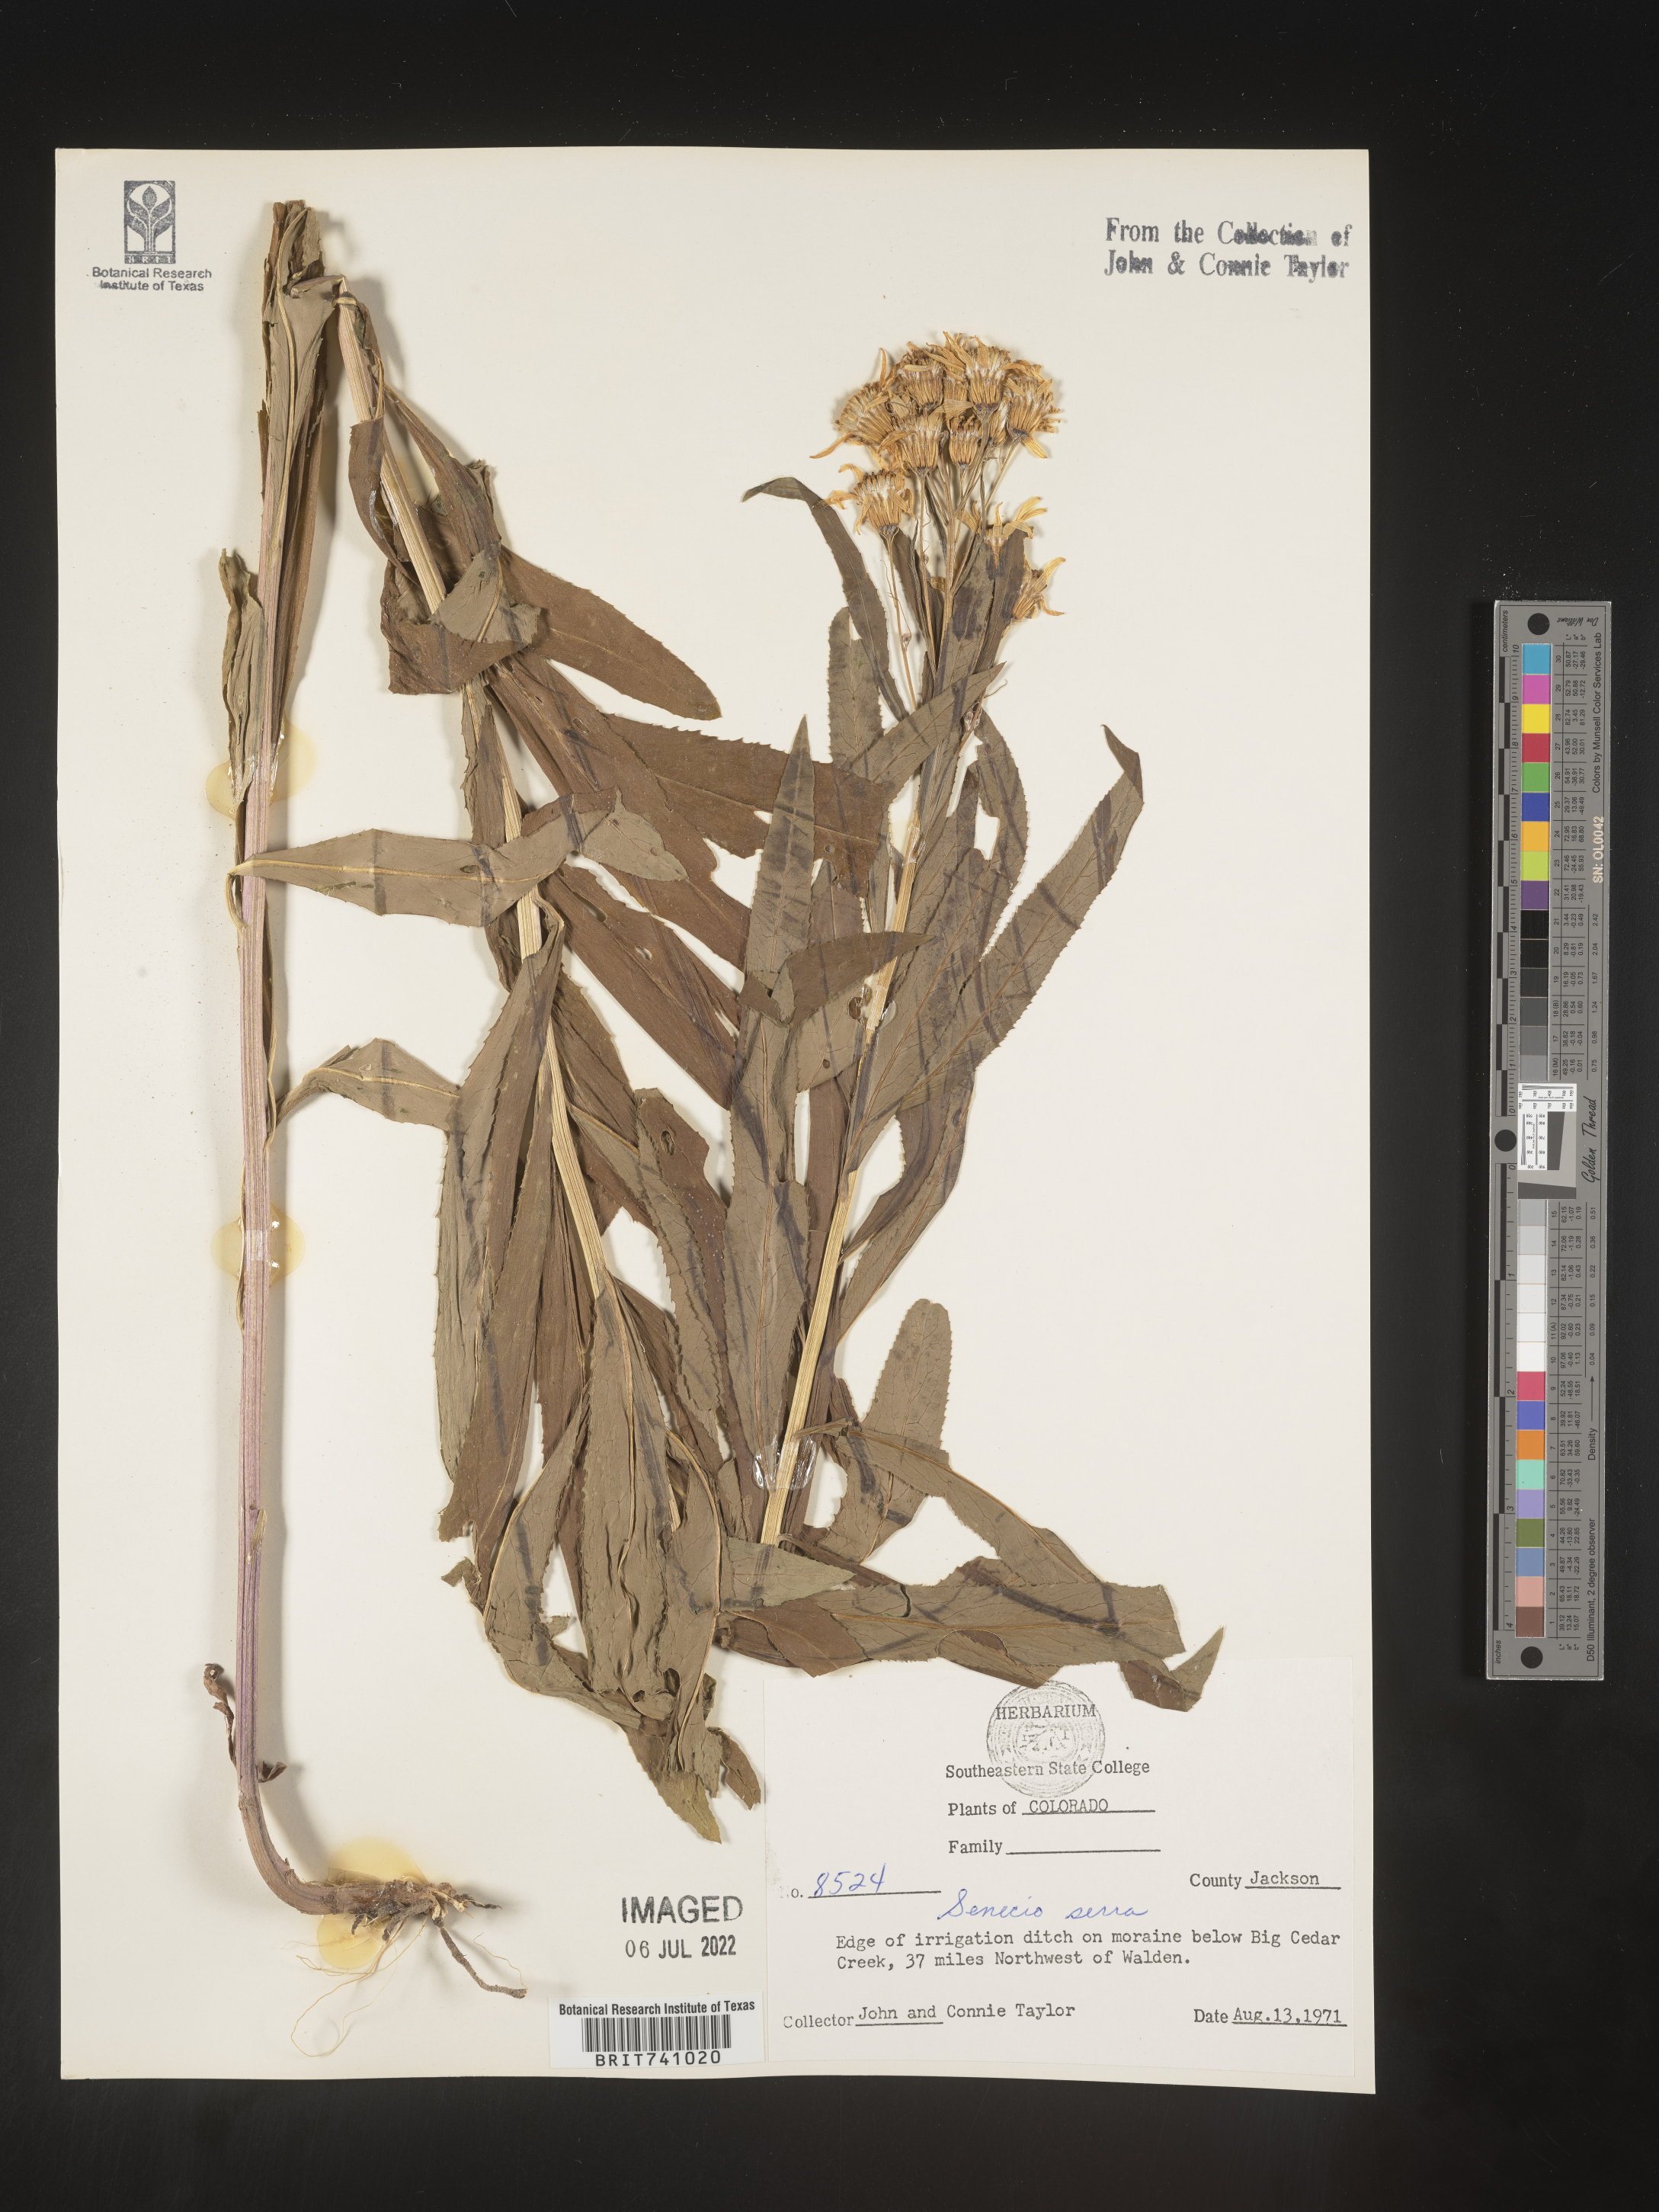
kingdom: Plantae
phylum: Tracheophyta
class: Magnoliopsida
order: Asterales
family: Asteraceae
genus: Senecio
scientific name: Senecio serra
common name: Tall ragwort
